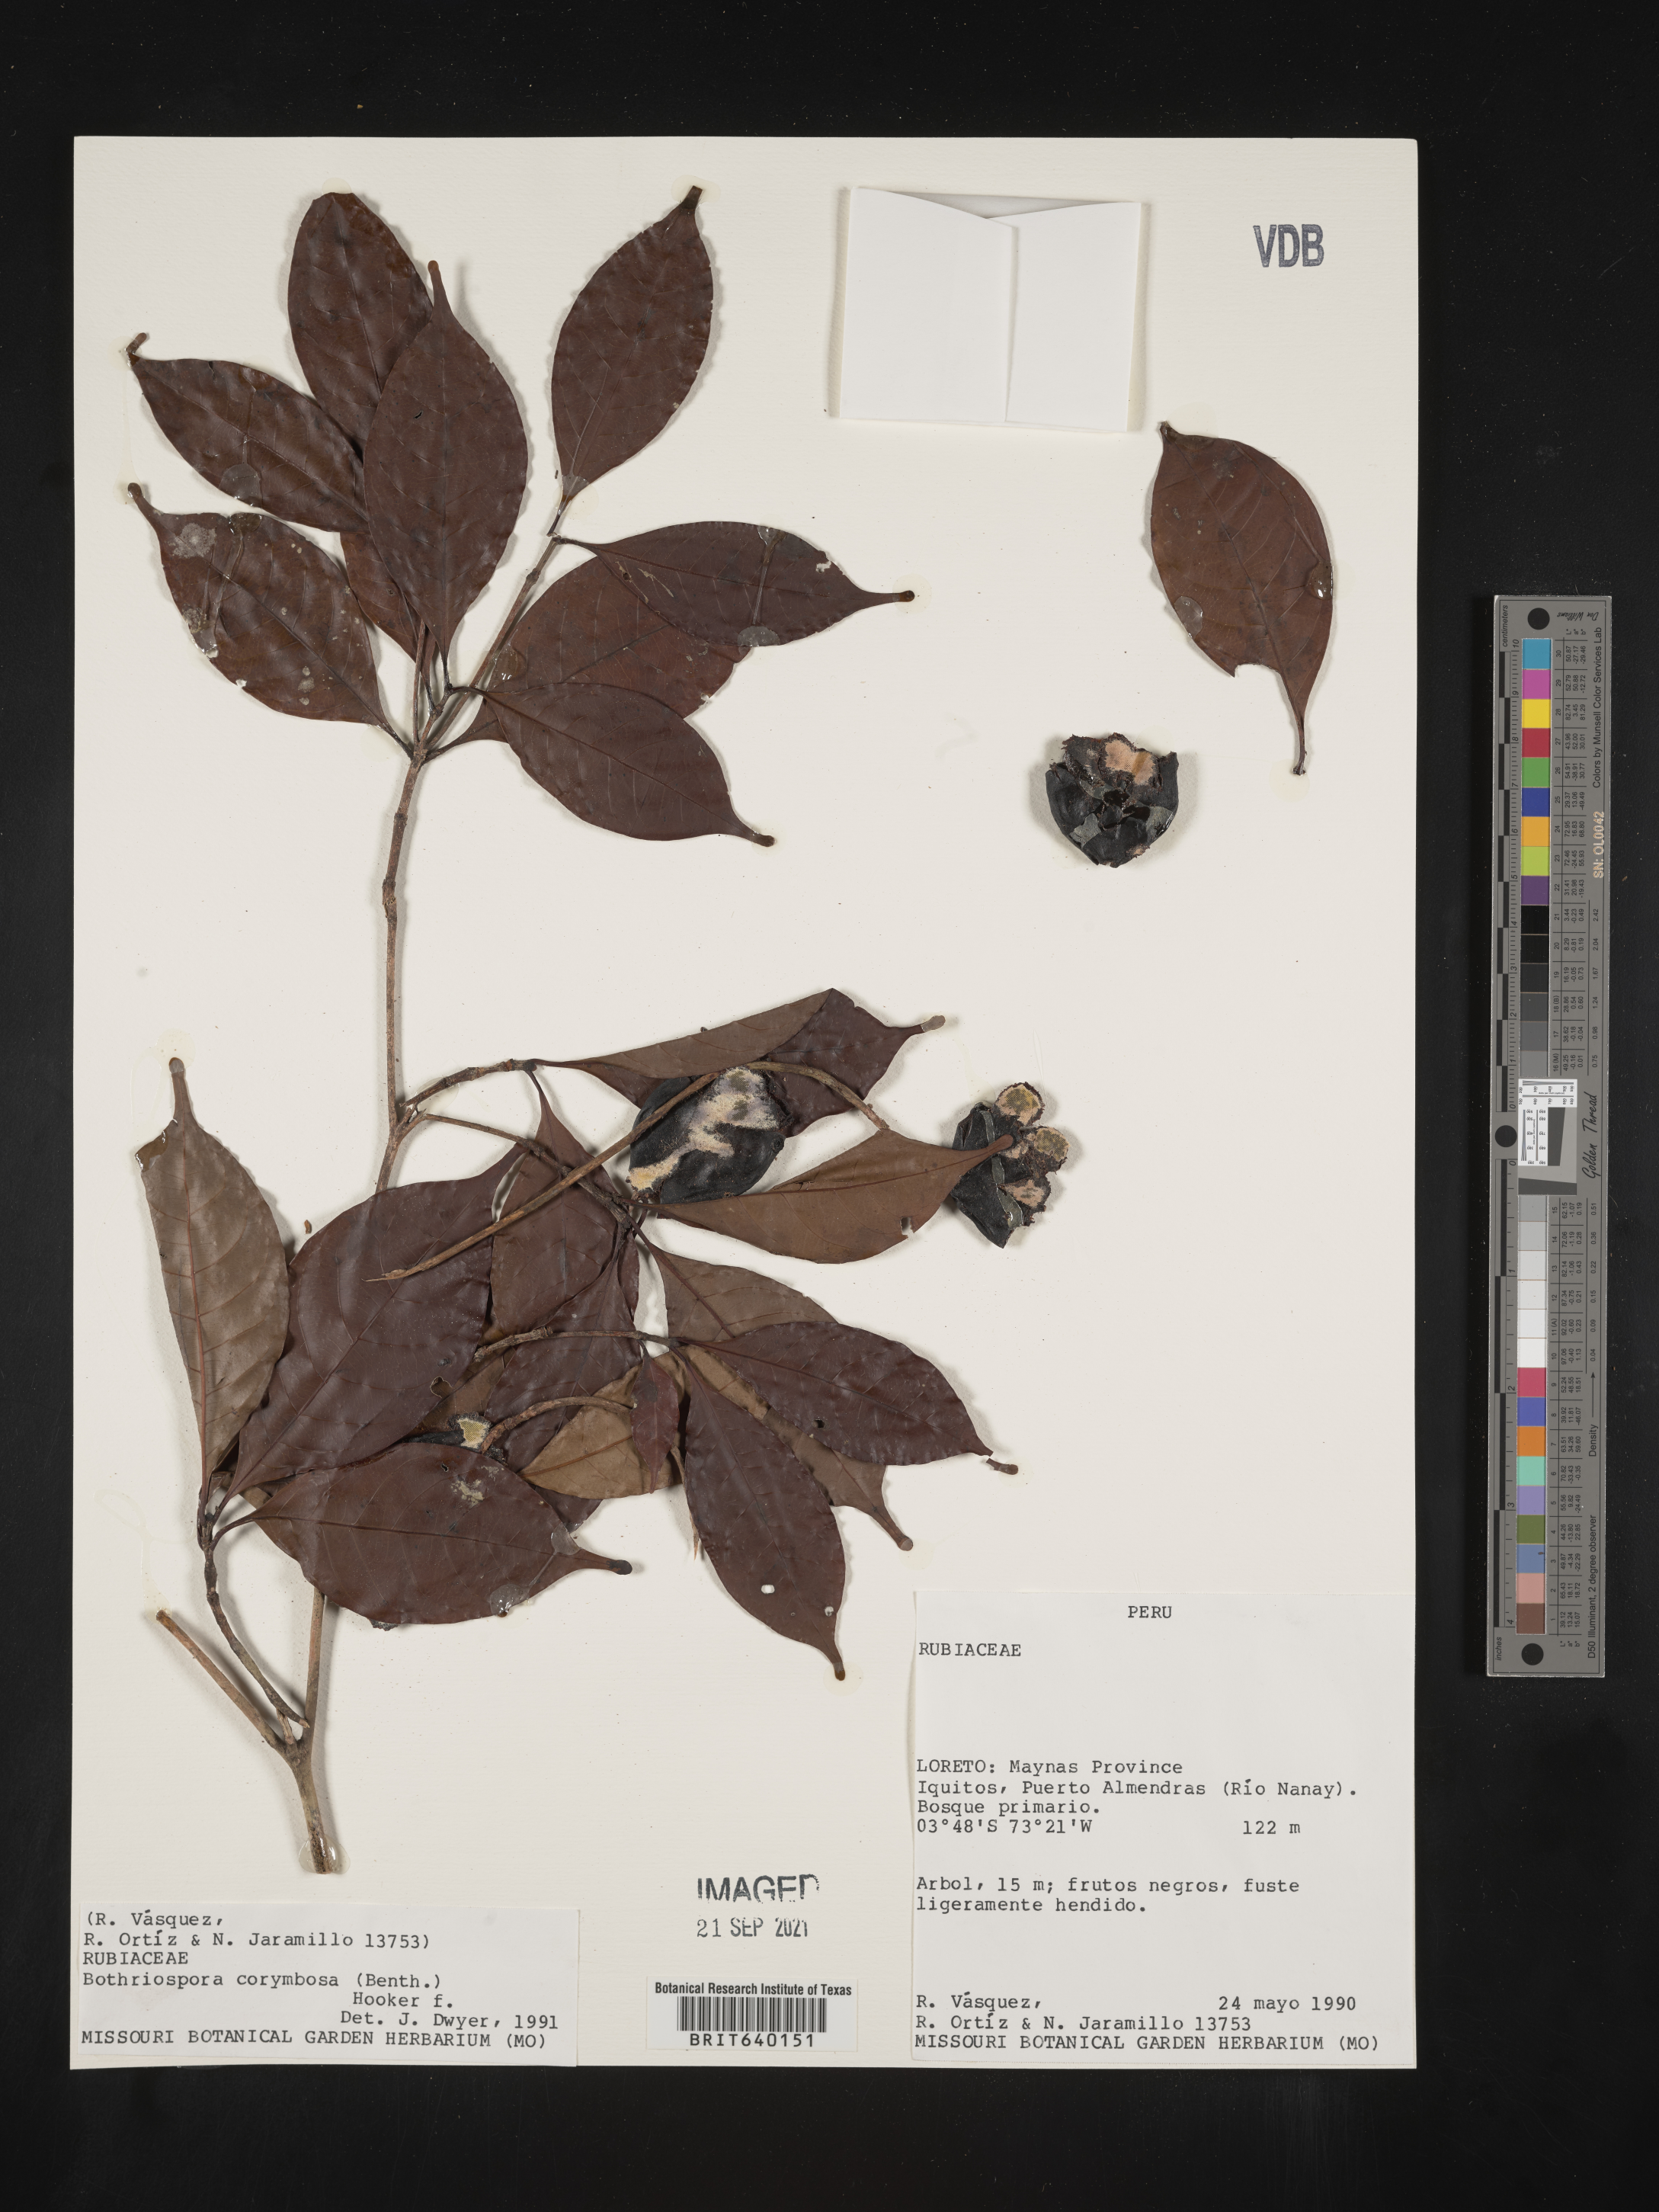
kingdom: Plantae
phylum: Tracheophyta
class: Magnoliopsida
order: Gentianales
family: Rubiaceae
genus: Bothriospora
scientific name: Bothriospora
